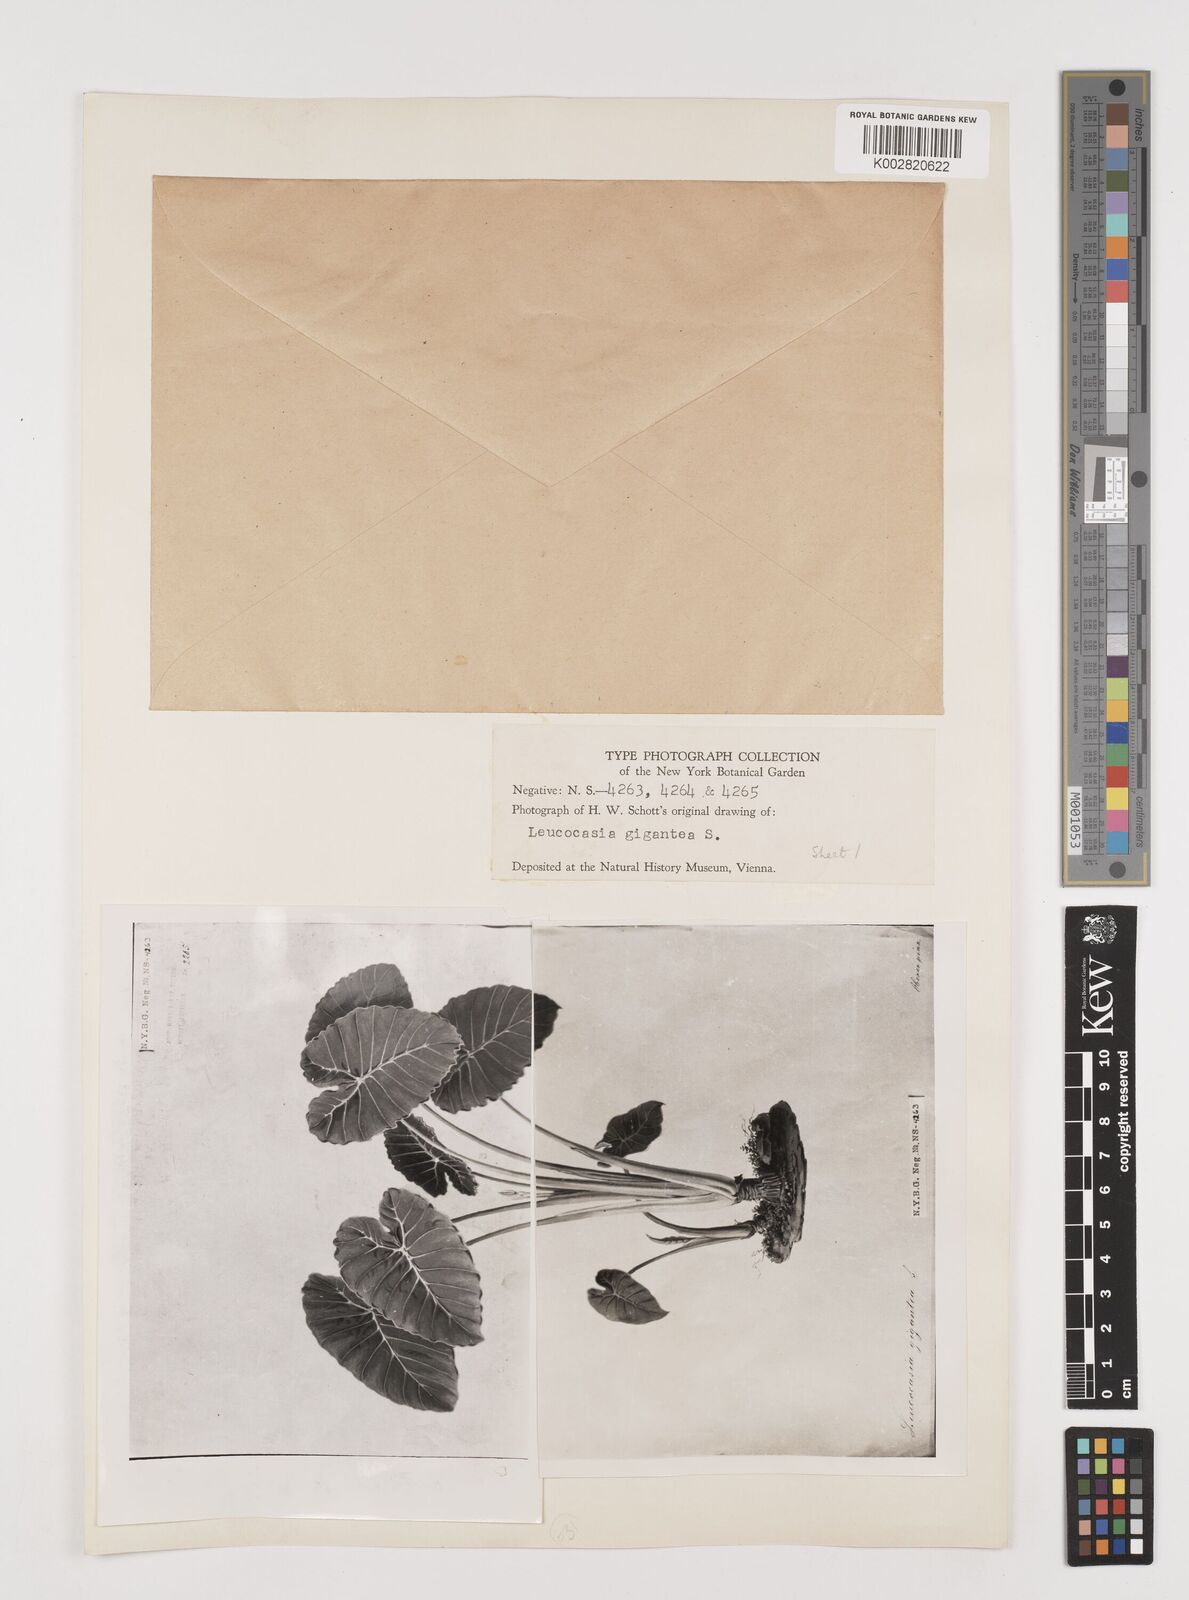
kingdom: Plantae
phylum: Tracheophyta
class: Liliopsida
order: Alismatales
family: Araceae
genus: Colocasia
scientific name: Colocasia
